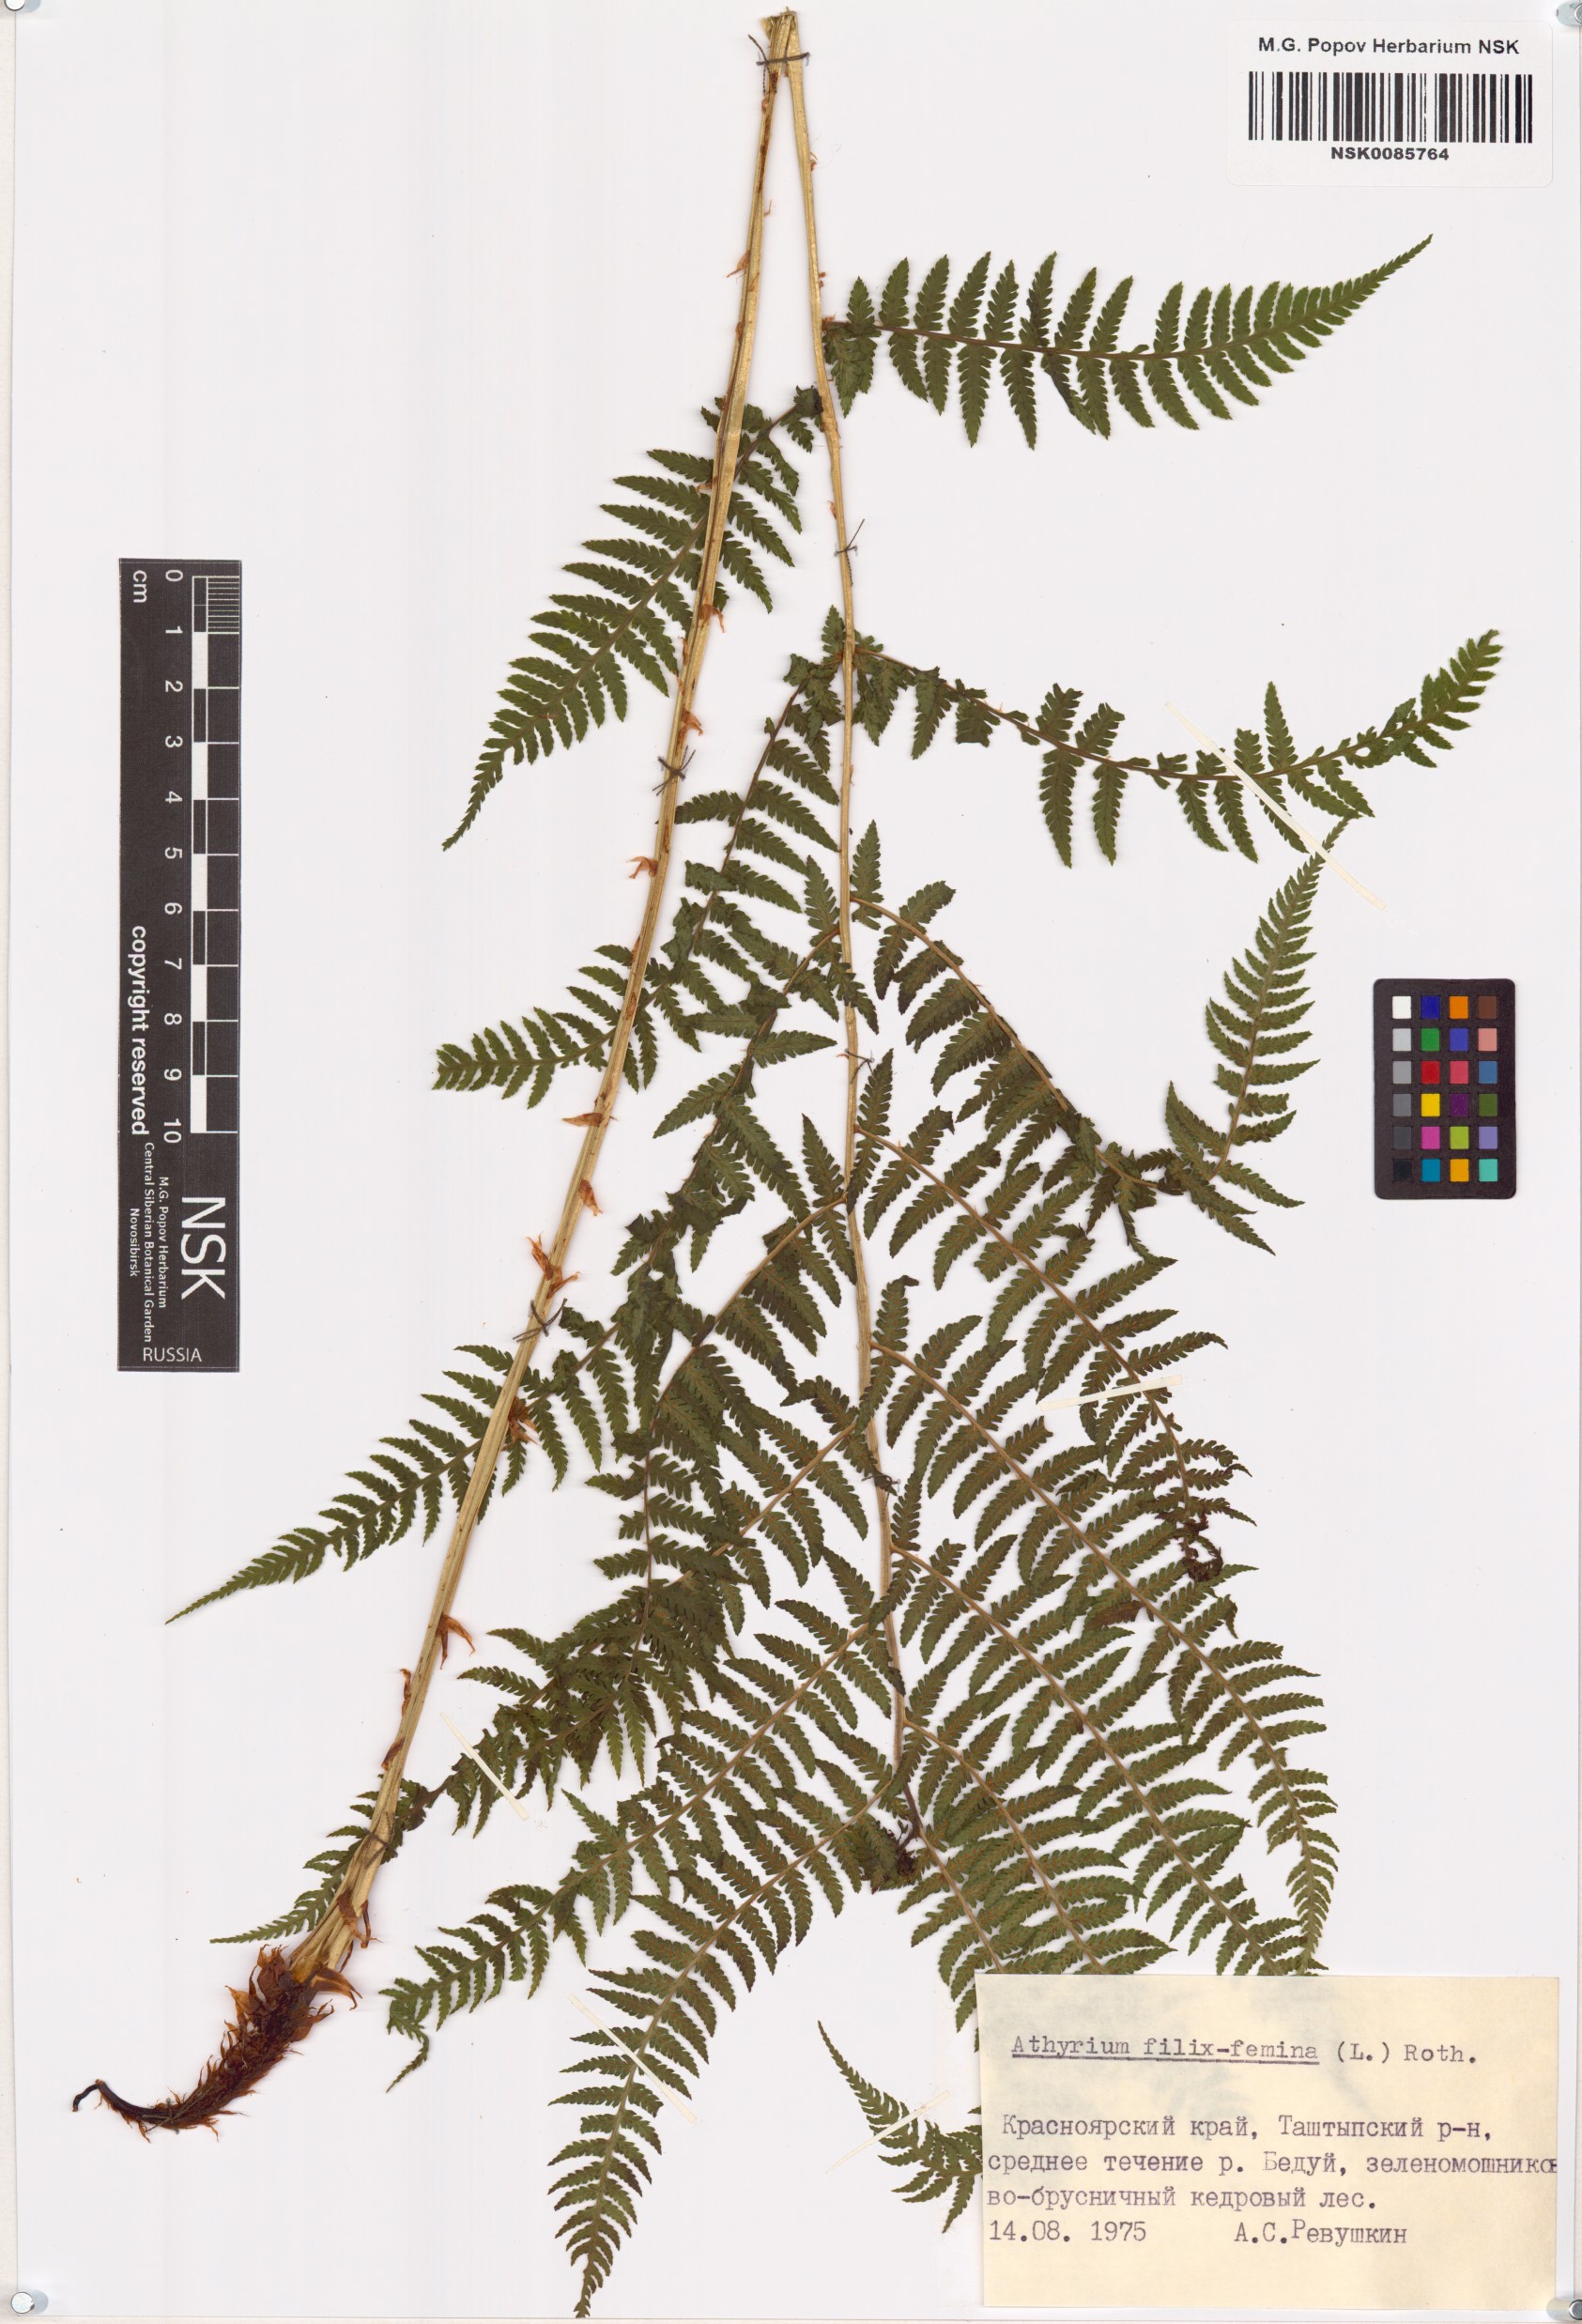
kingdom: Plantae
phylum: Tracheophyta
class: Polypodiopsida
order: Polypodiales
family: Athyriaceae
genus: Athyrium
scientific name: Athyrium filix-femina
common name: Lady fern
